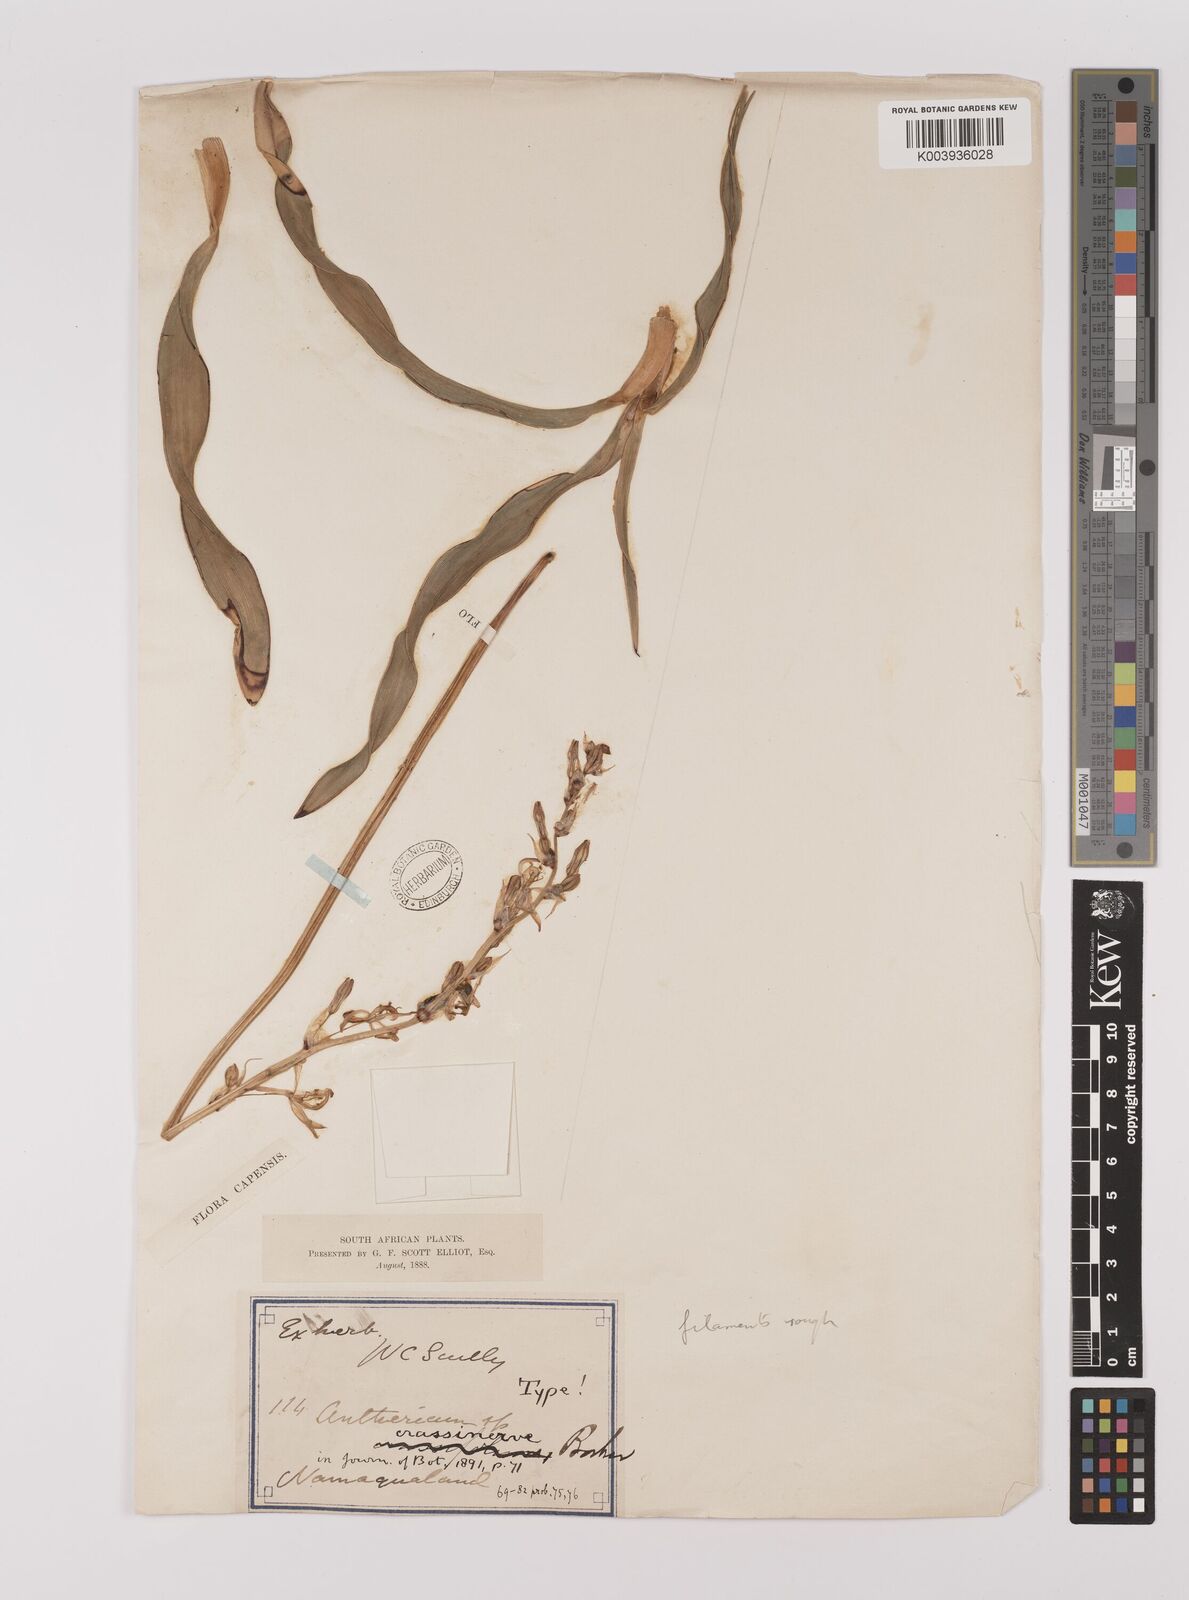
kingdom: Plantae
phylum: Tracheophyta
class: Liliopsida
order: Asparagales
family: Asparagaceae
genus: Chlorophytum
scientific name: Chlorophytum crassinerve
